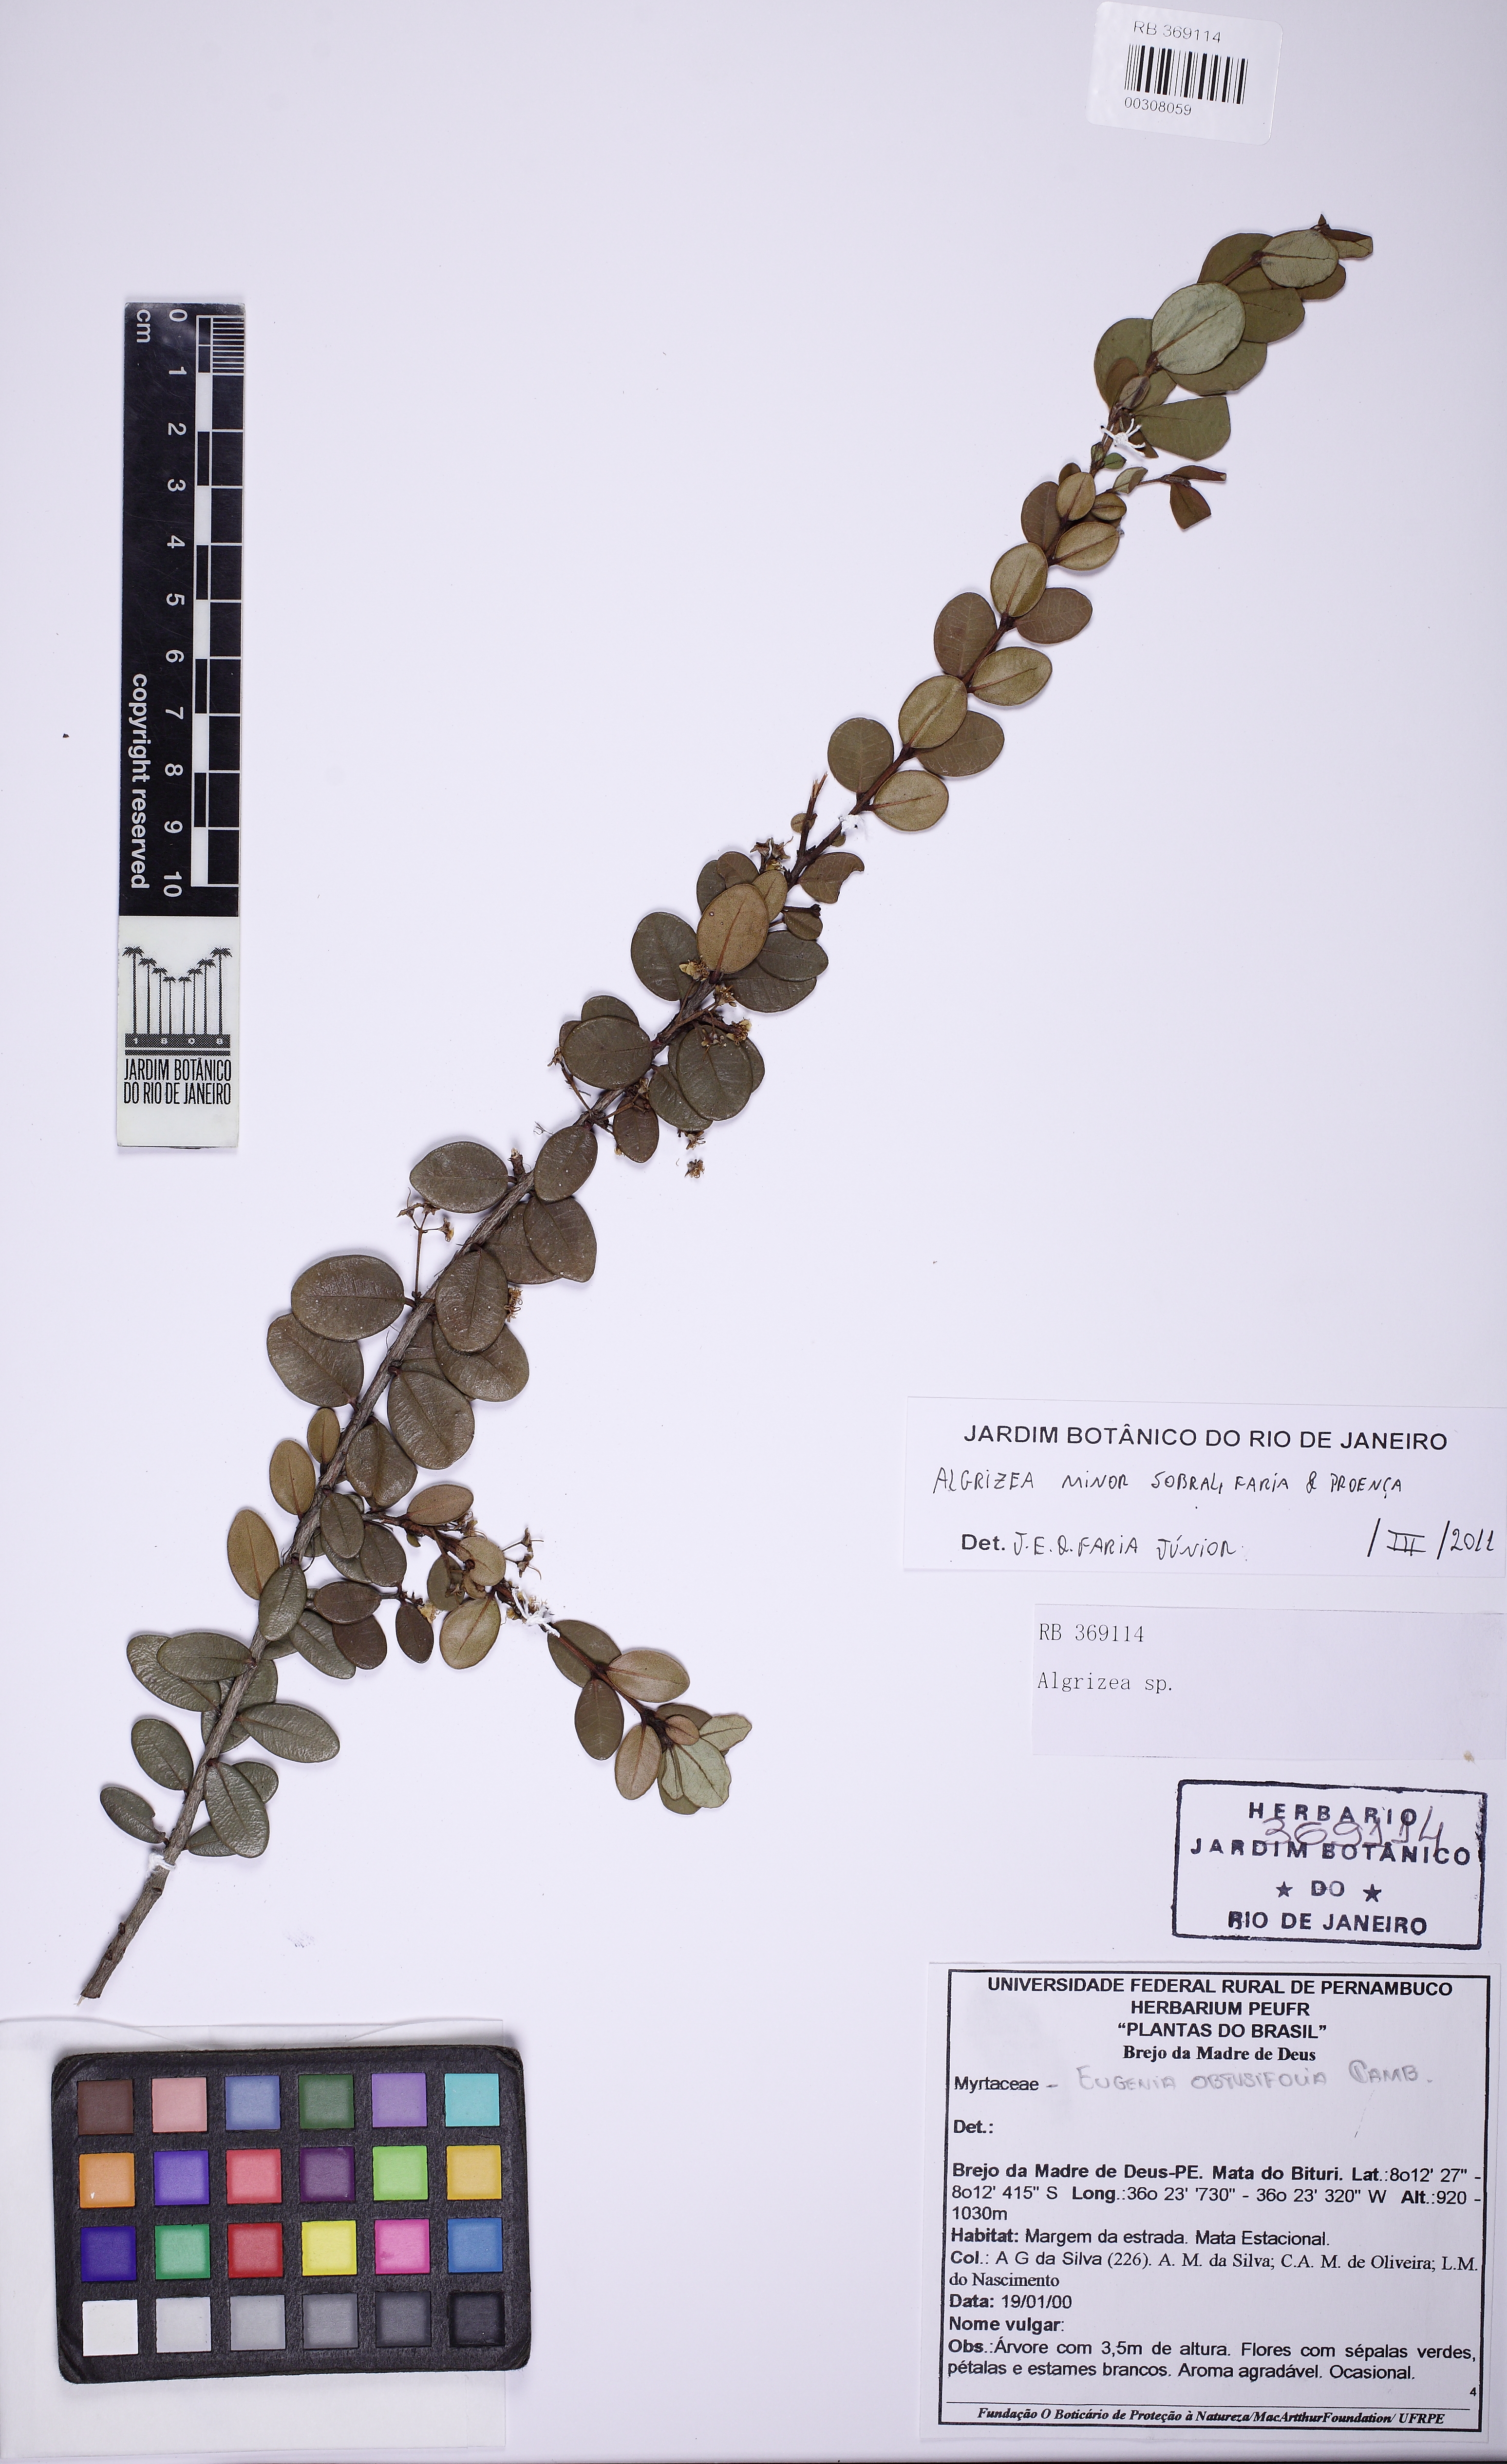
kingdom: Plantae
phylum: Tracheophyta
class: Magnoliopsida
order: Myrtales
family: Myrtaceae
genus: Algrizea
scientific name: Algrizea minor
